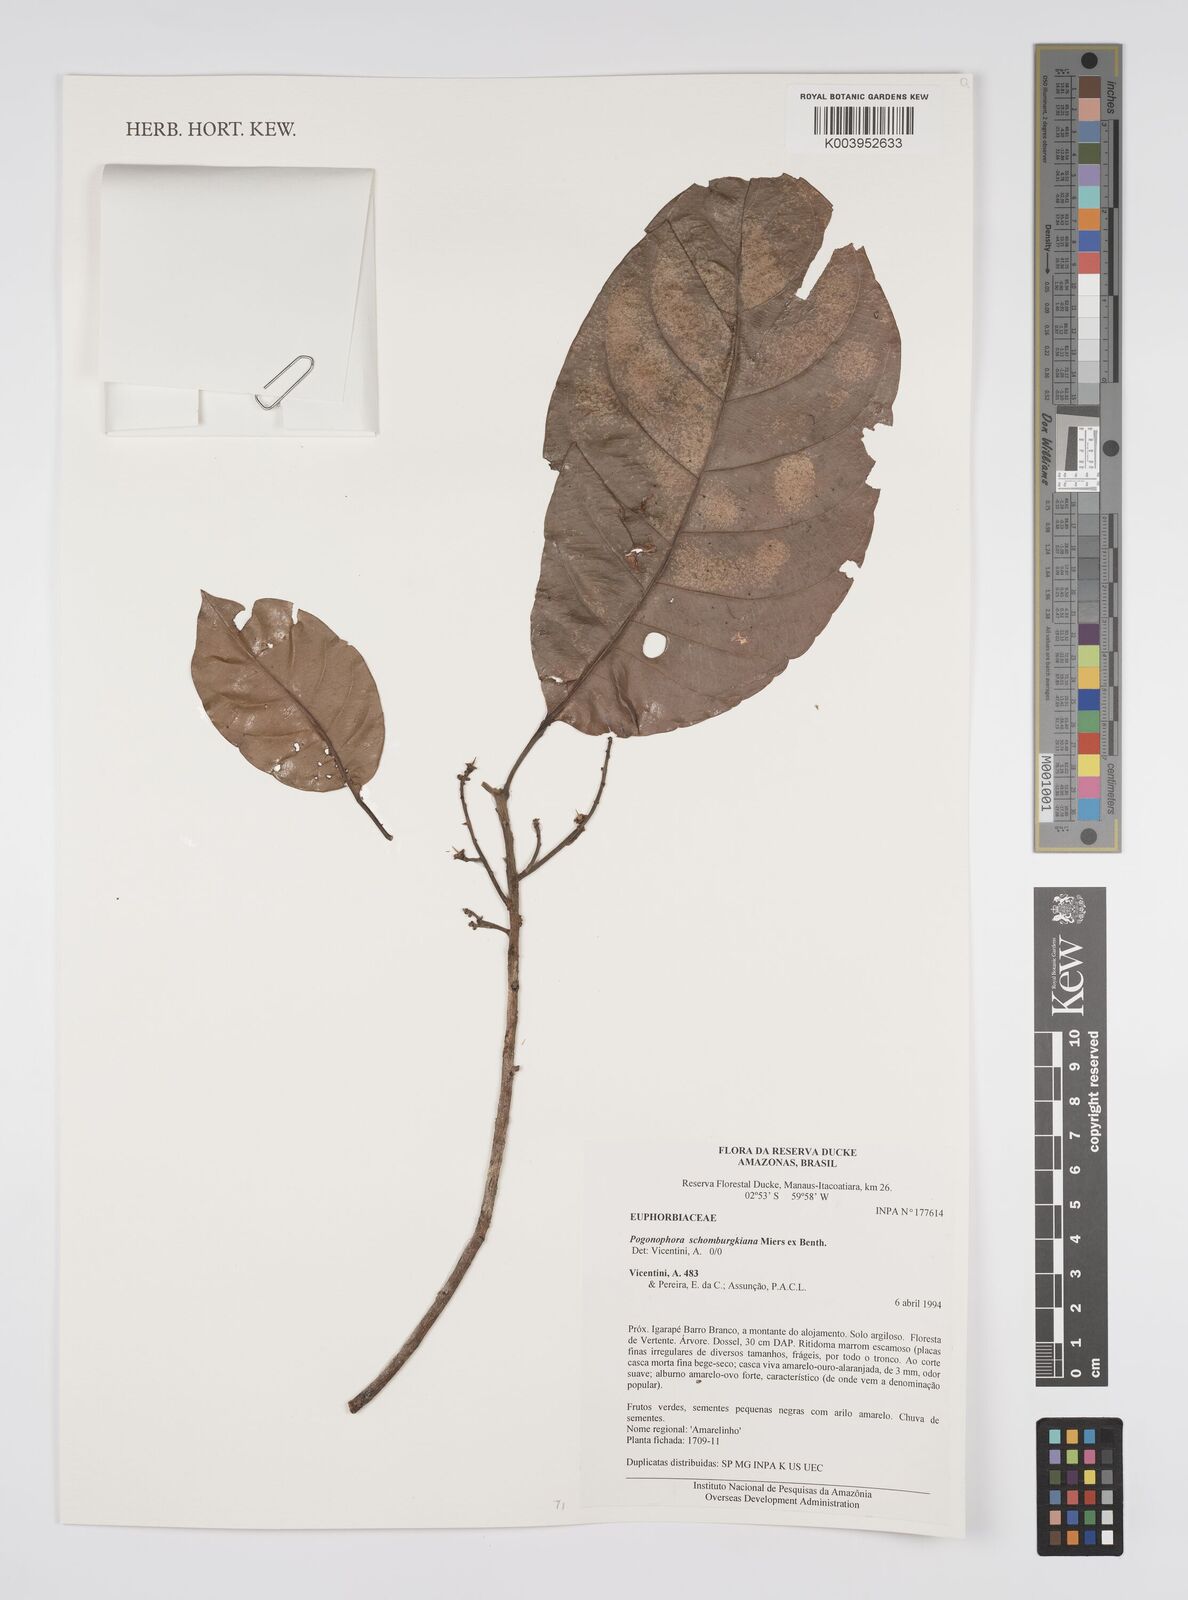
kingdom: Plantae
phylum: Tracheophyta
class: Magnoliopsida
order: Malpighiales
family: Peraceae
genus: Pogonophora
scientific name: Pogonophora schomburgkiana
